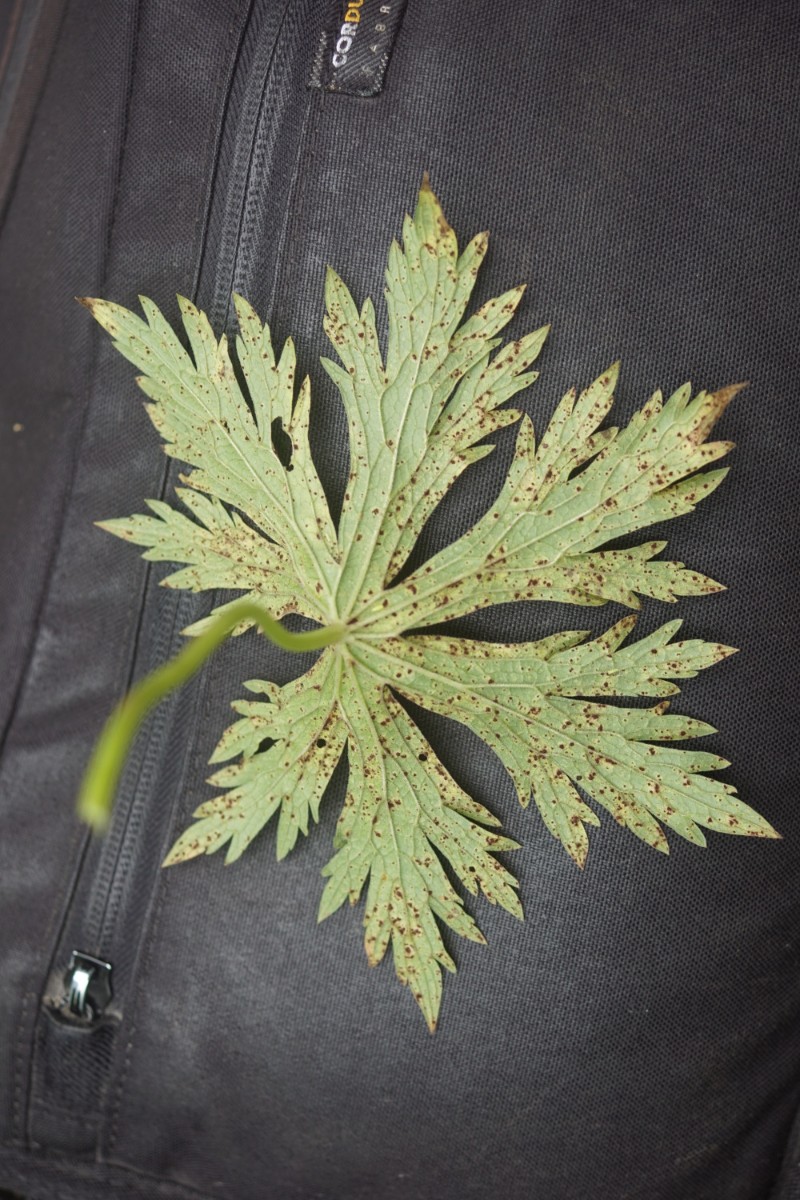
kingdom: Fungi
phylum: Basidiomycota
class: Pucciniomycetes
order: Pucciniales
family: Pucciniaceae
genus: Uromyces
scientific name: Uromyces geranii
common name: Geranium rust
